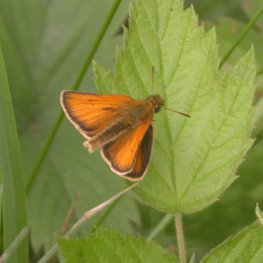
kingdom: Animalia
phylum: Arthropoda
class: Insecta
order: Lepidoptera
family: Hesperiidae
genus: Thymelicus
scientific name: Thymelicus lineola
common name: European Skipper
